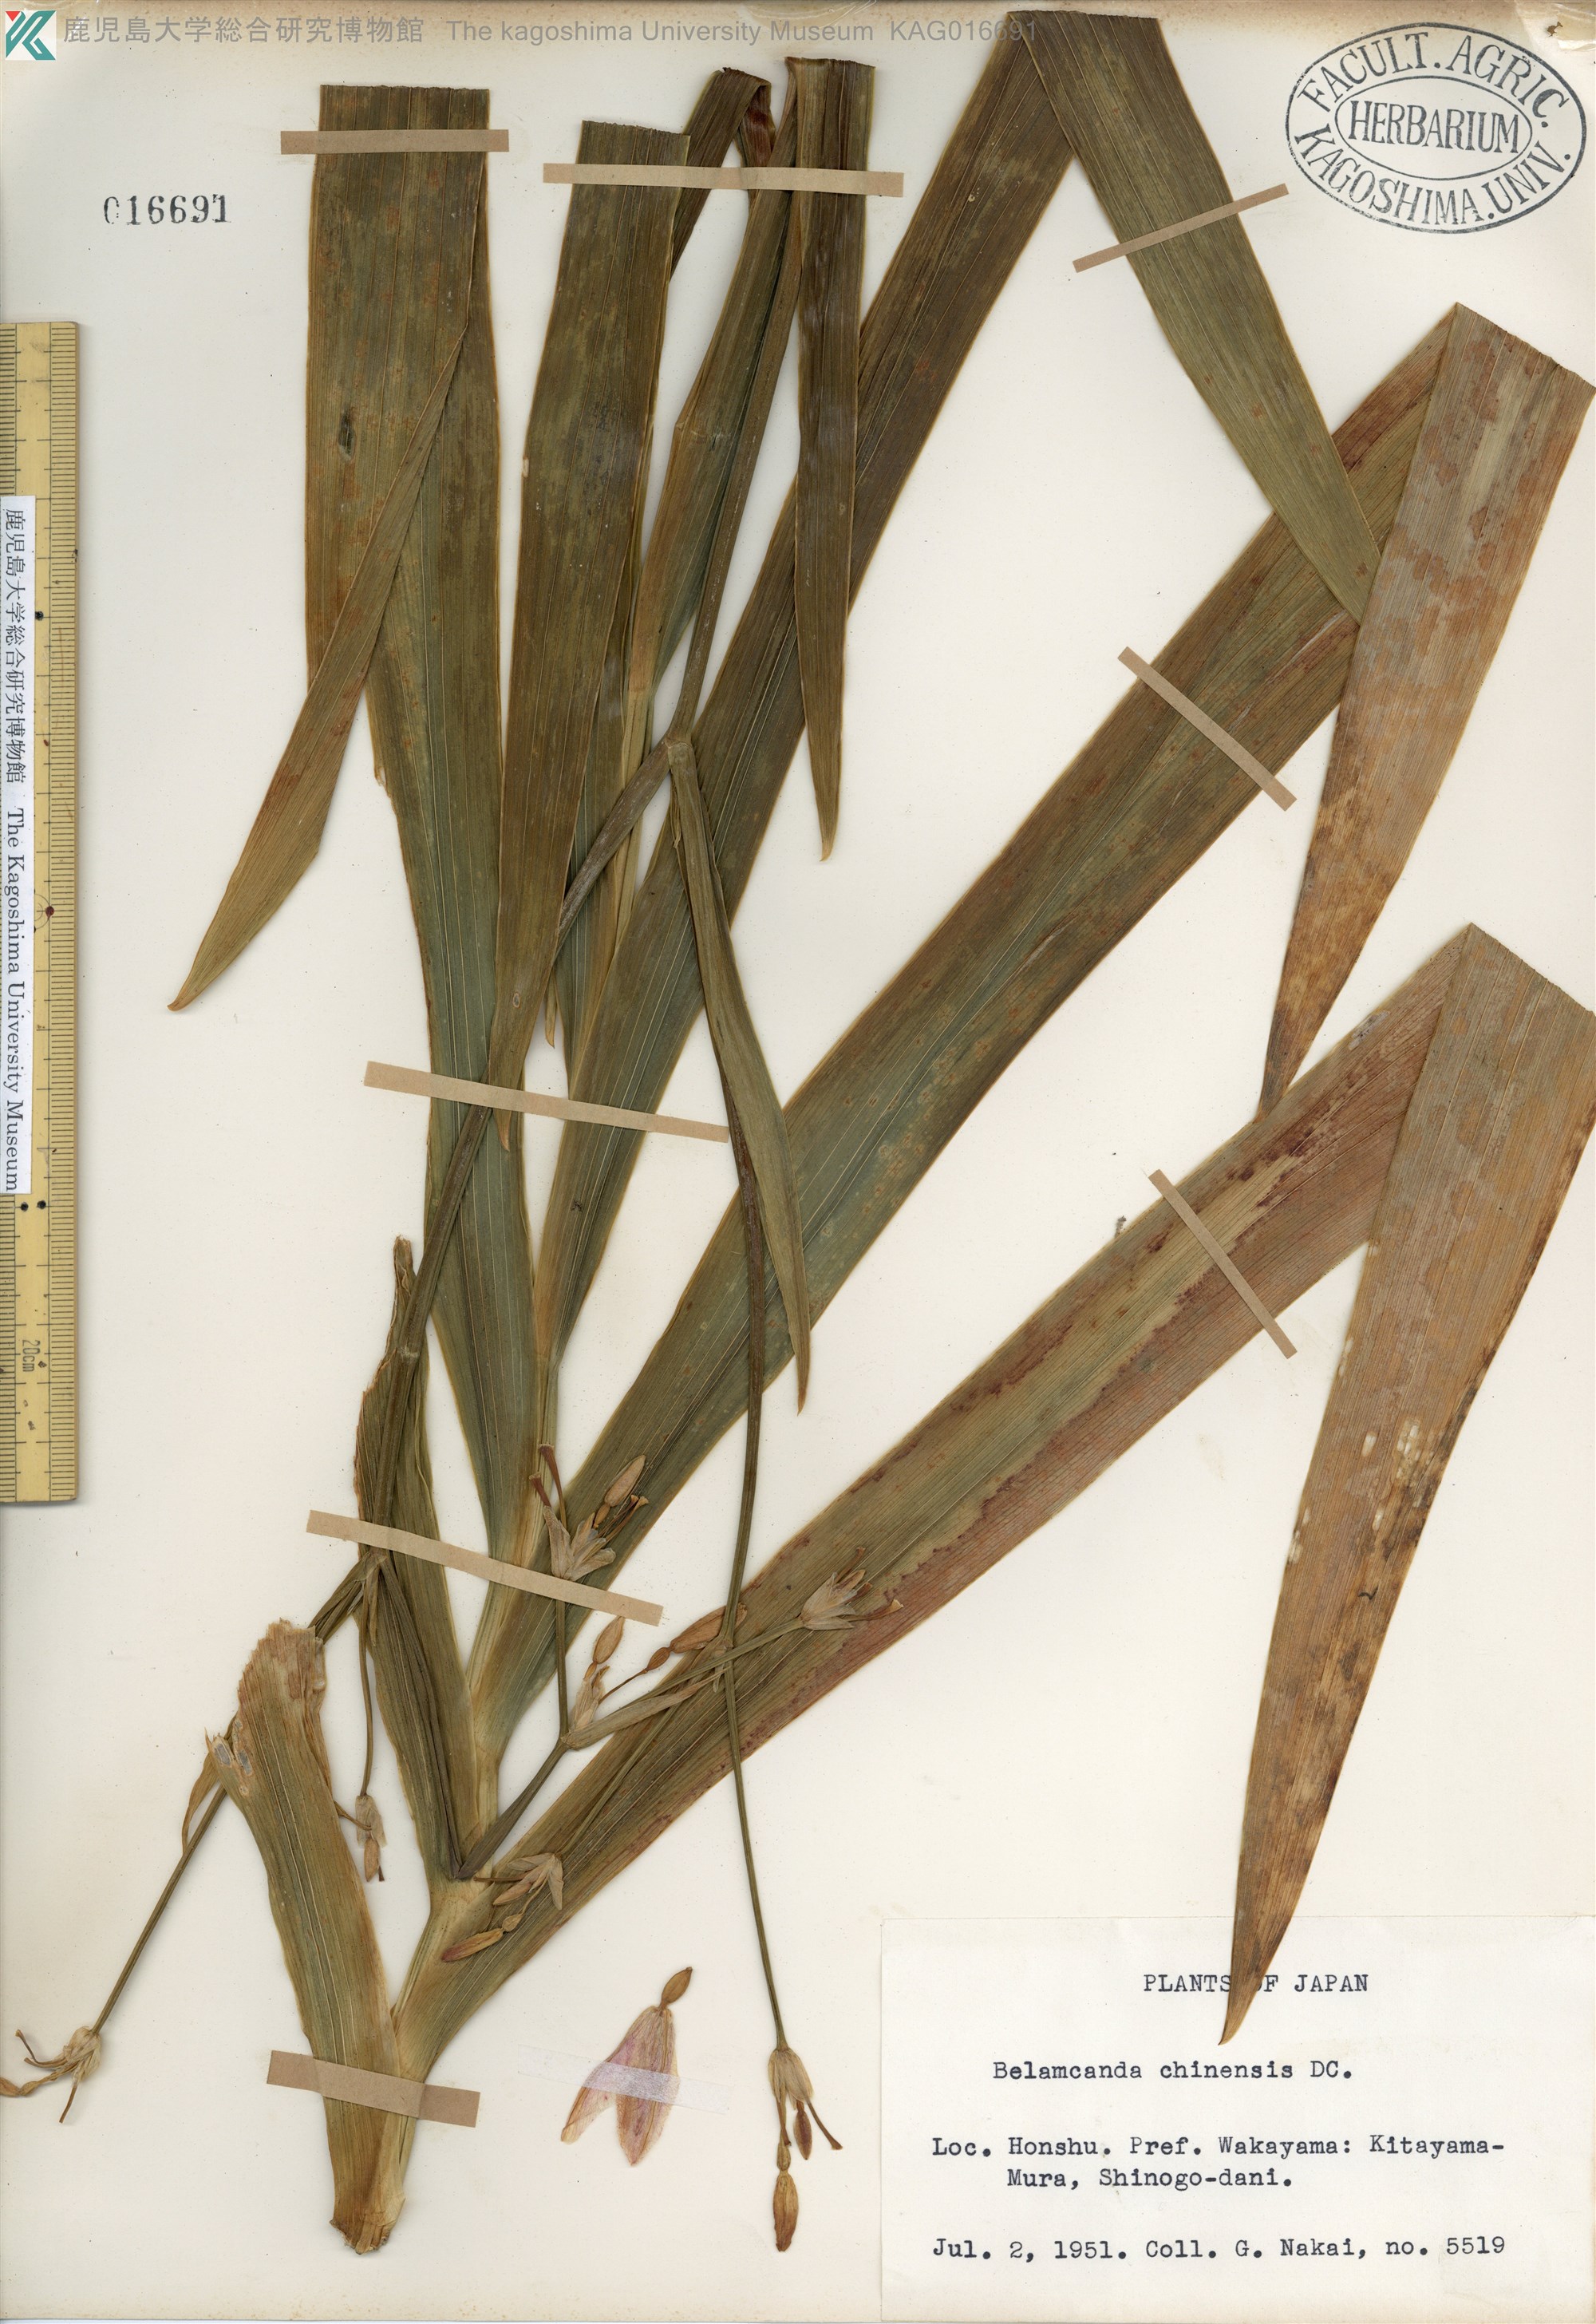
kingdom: Plantae
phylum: Tracheophyta
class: Liliopsida
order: Asparagales
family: Iridaceae
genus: Iris
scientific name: Iris domestica
